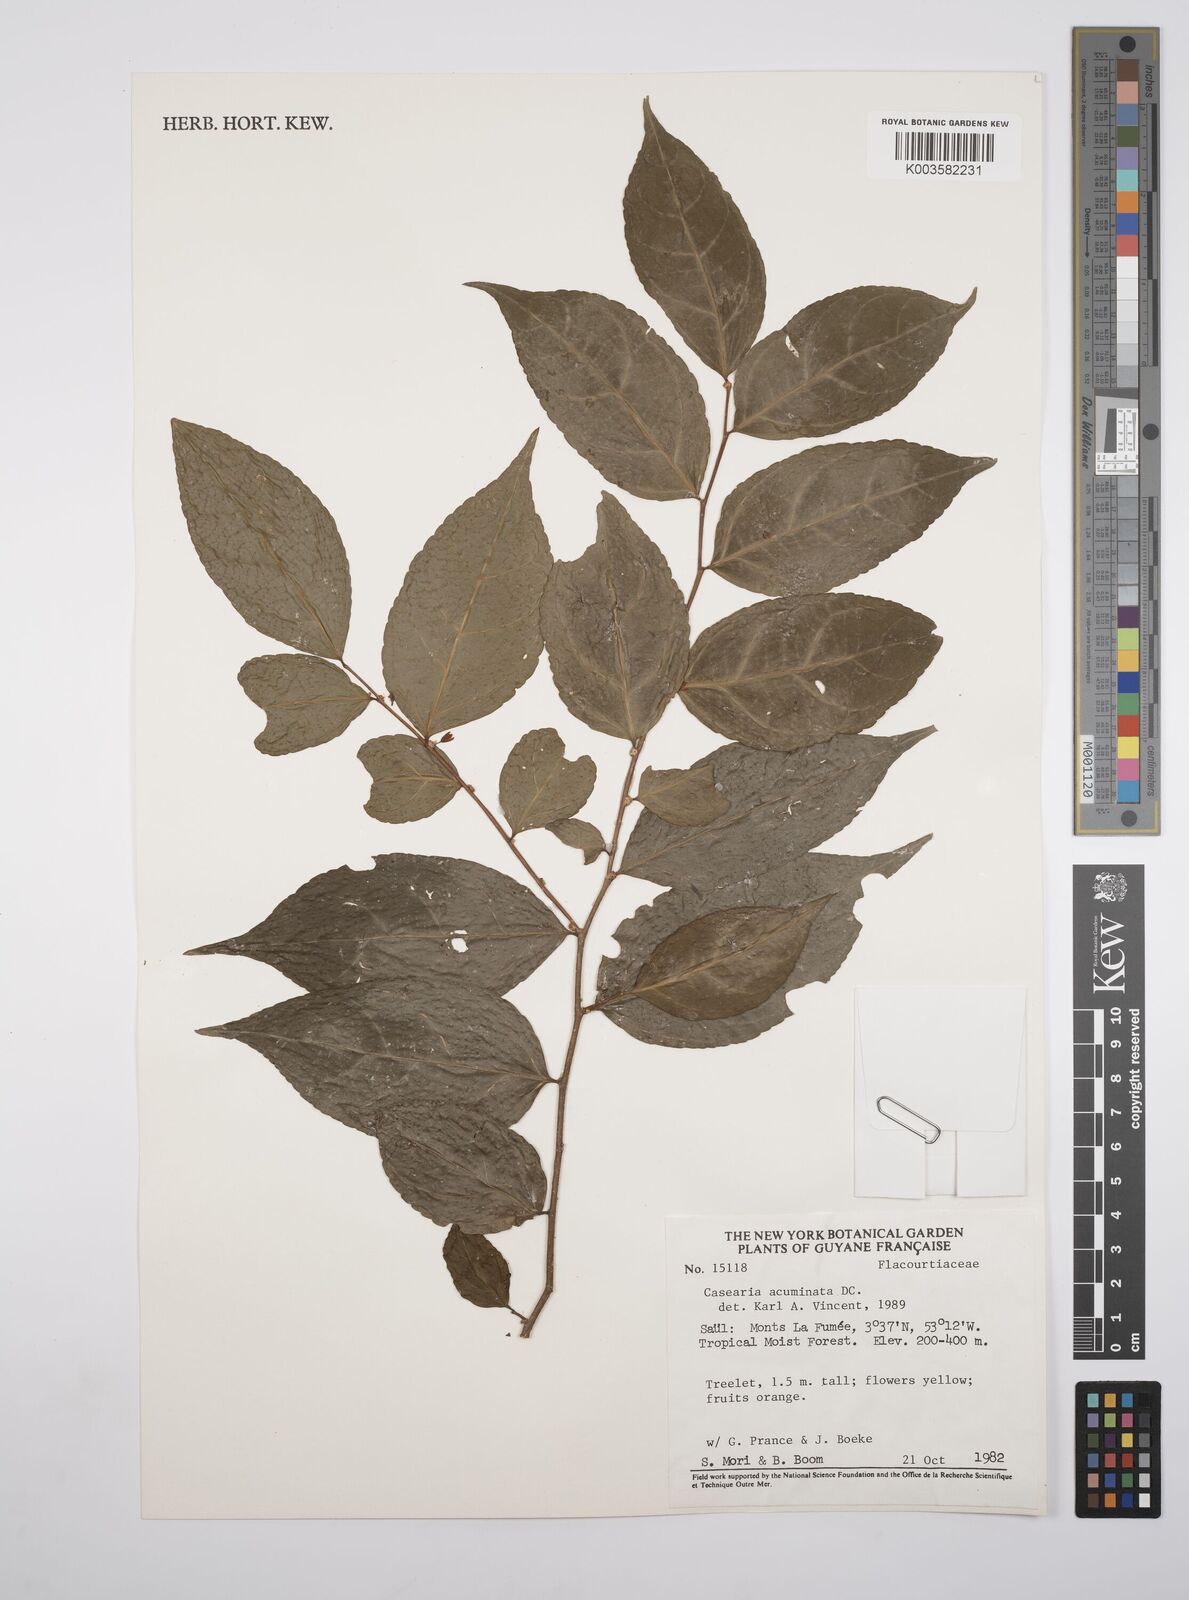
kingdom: Plantae
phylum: Tracheophyta
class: Magnoliopsida
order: Malpighiales
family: Salicaceae
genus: Casearia
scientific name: Casearia acuminata
